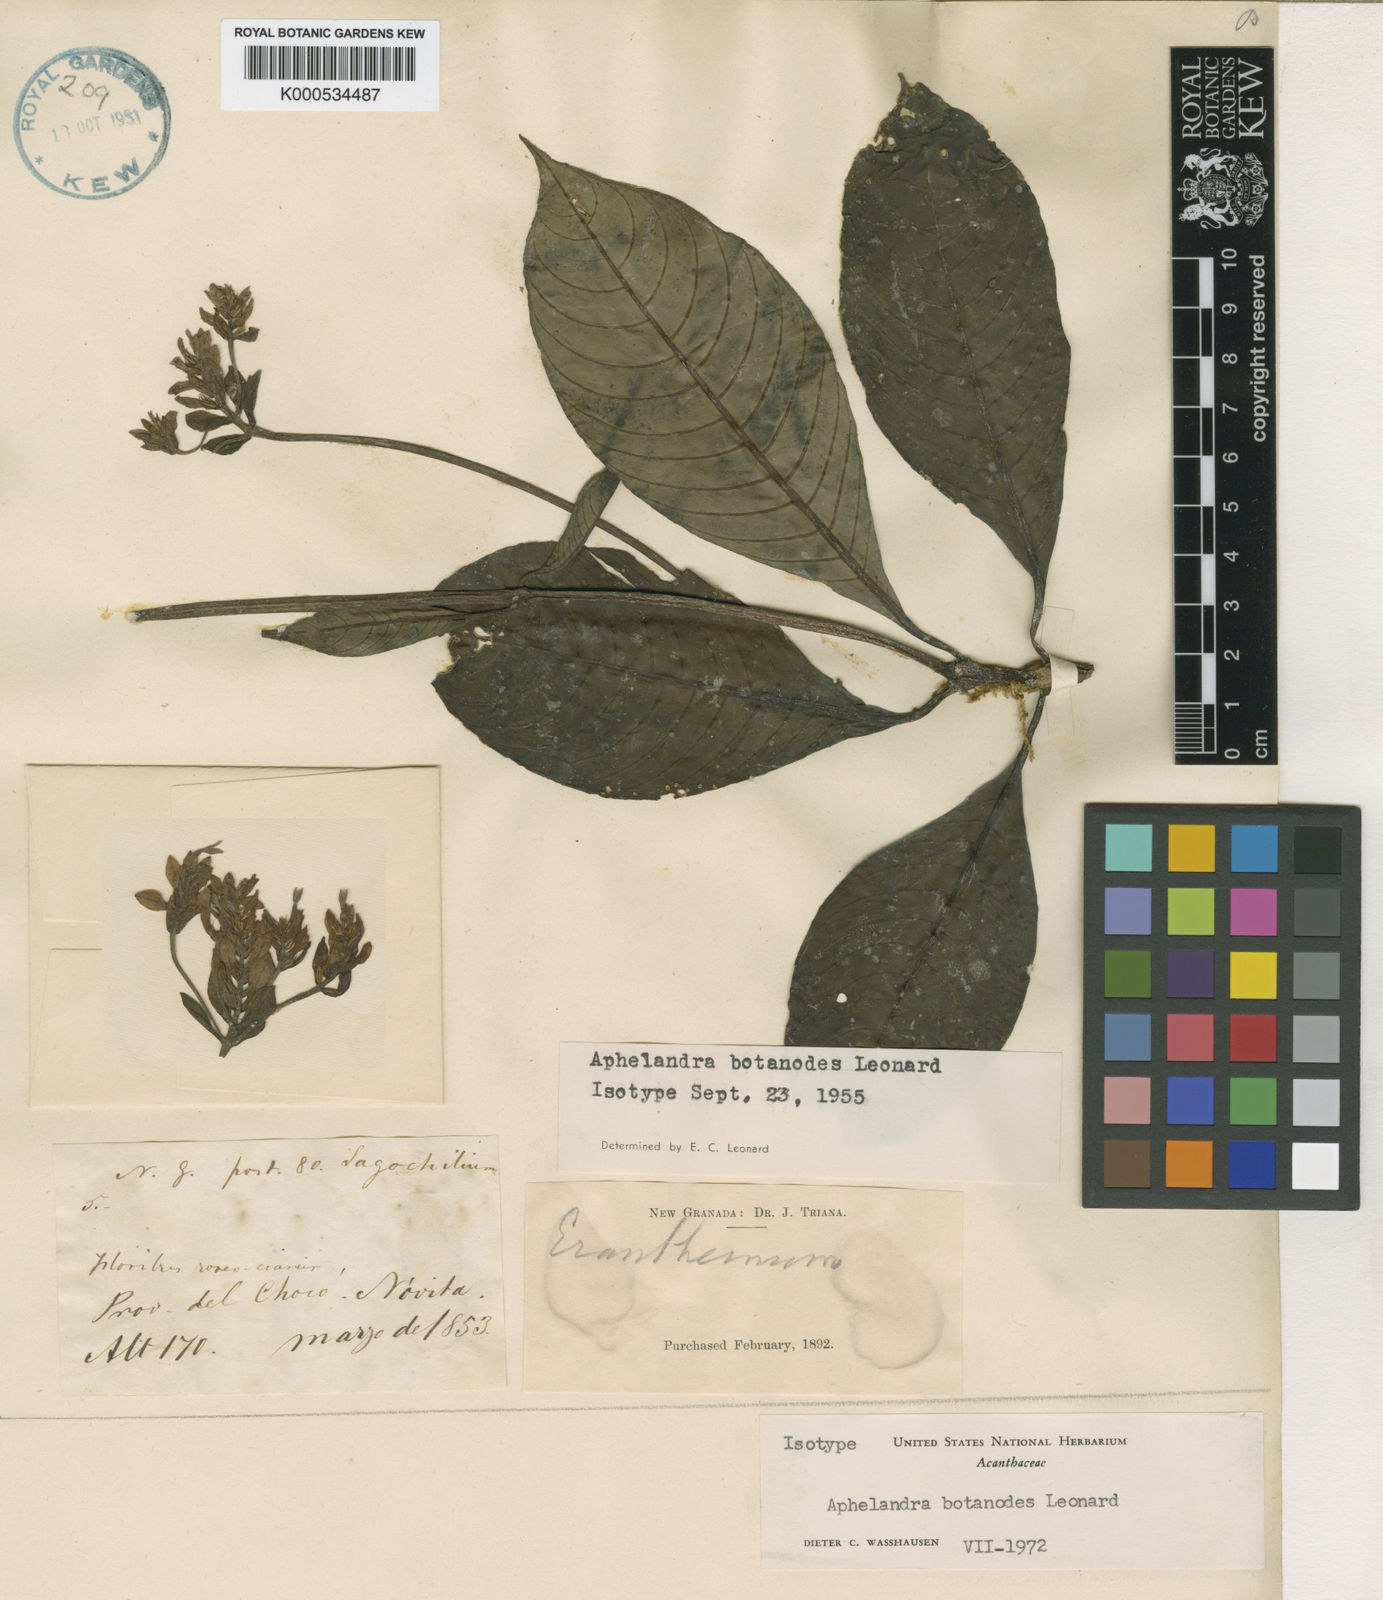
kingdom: Plantae
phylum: Tracheophyta
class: Magnoliopsida
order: Lamiales
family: Acanthaceae
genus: Aphelandra
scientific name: Aphelandra
